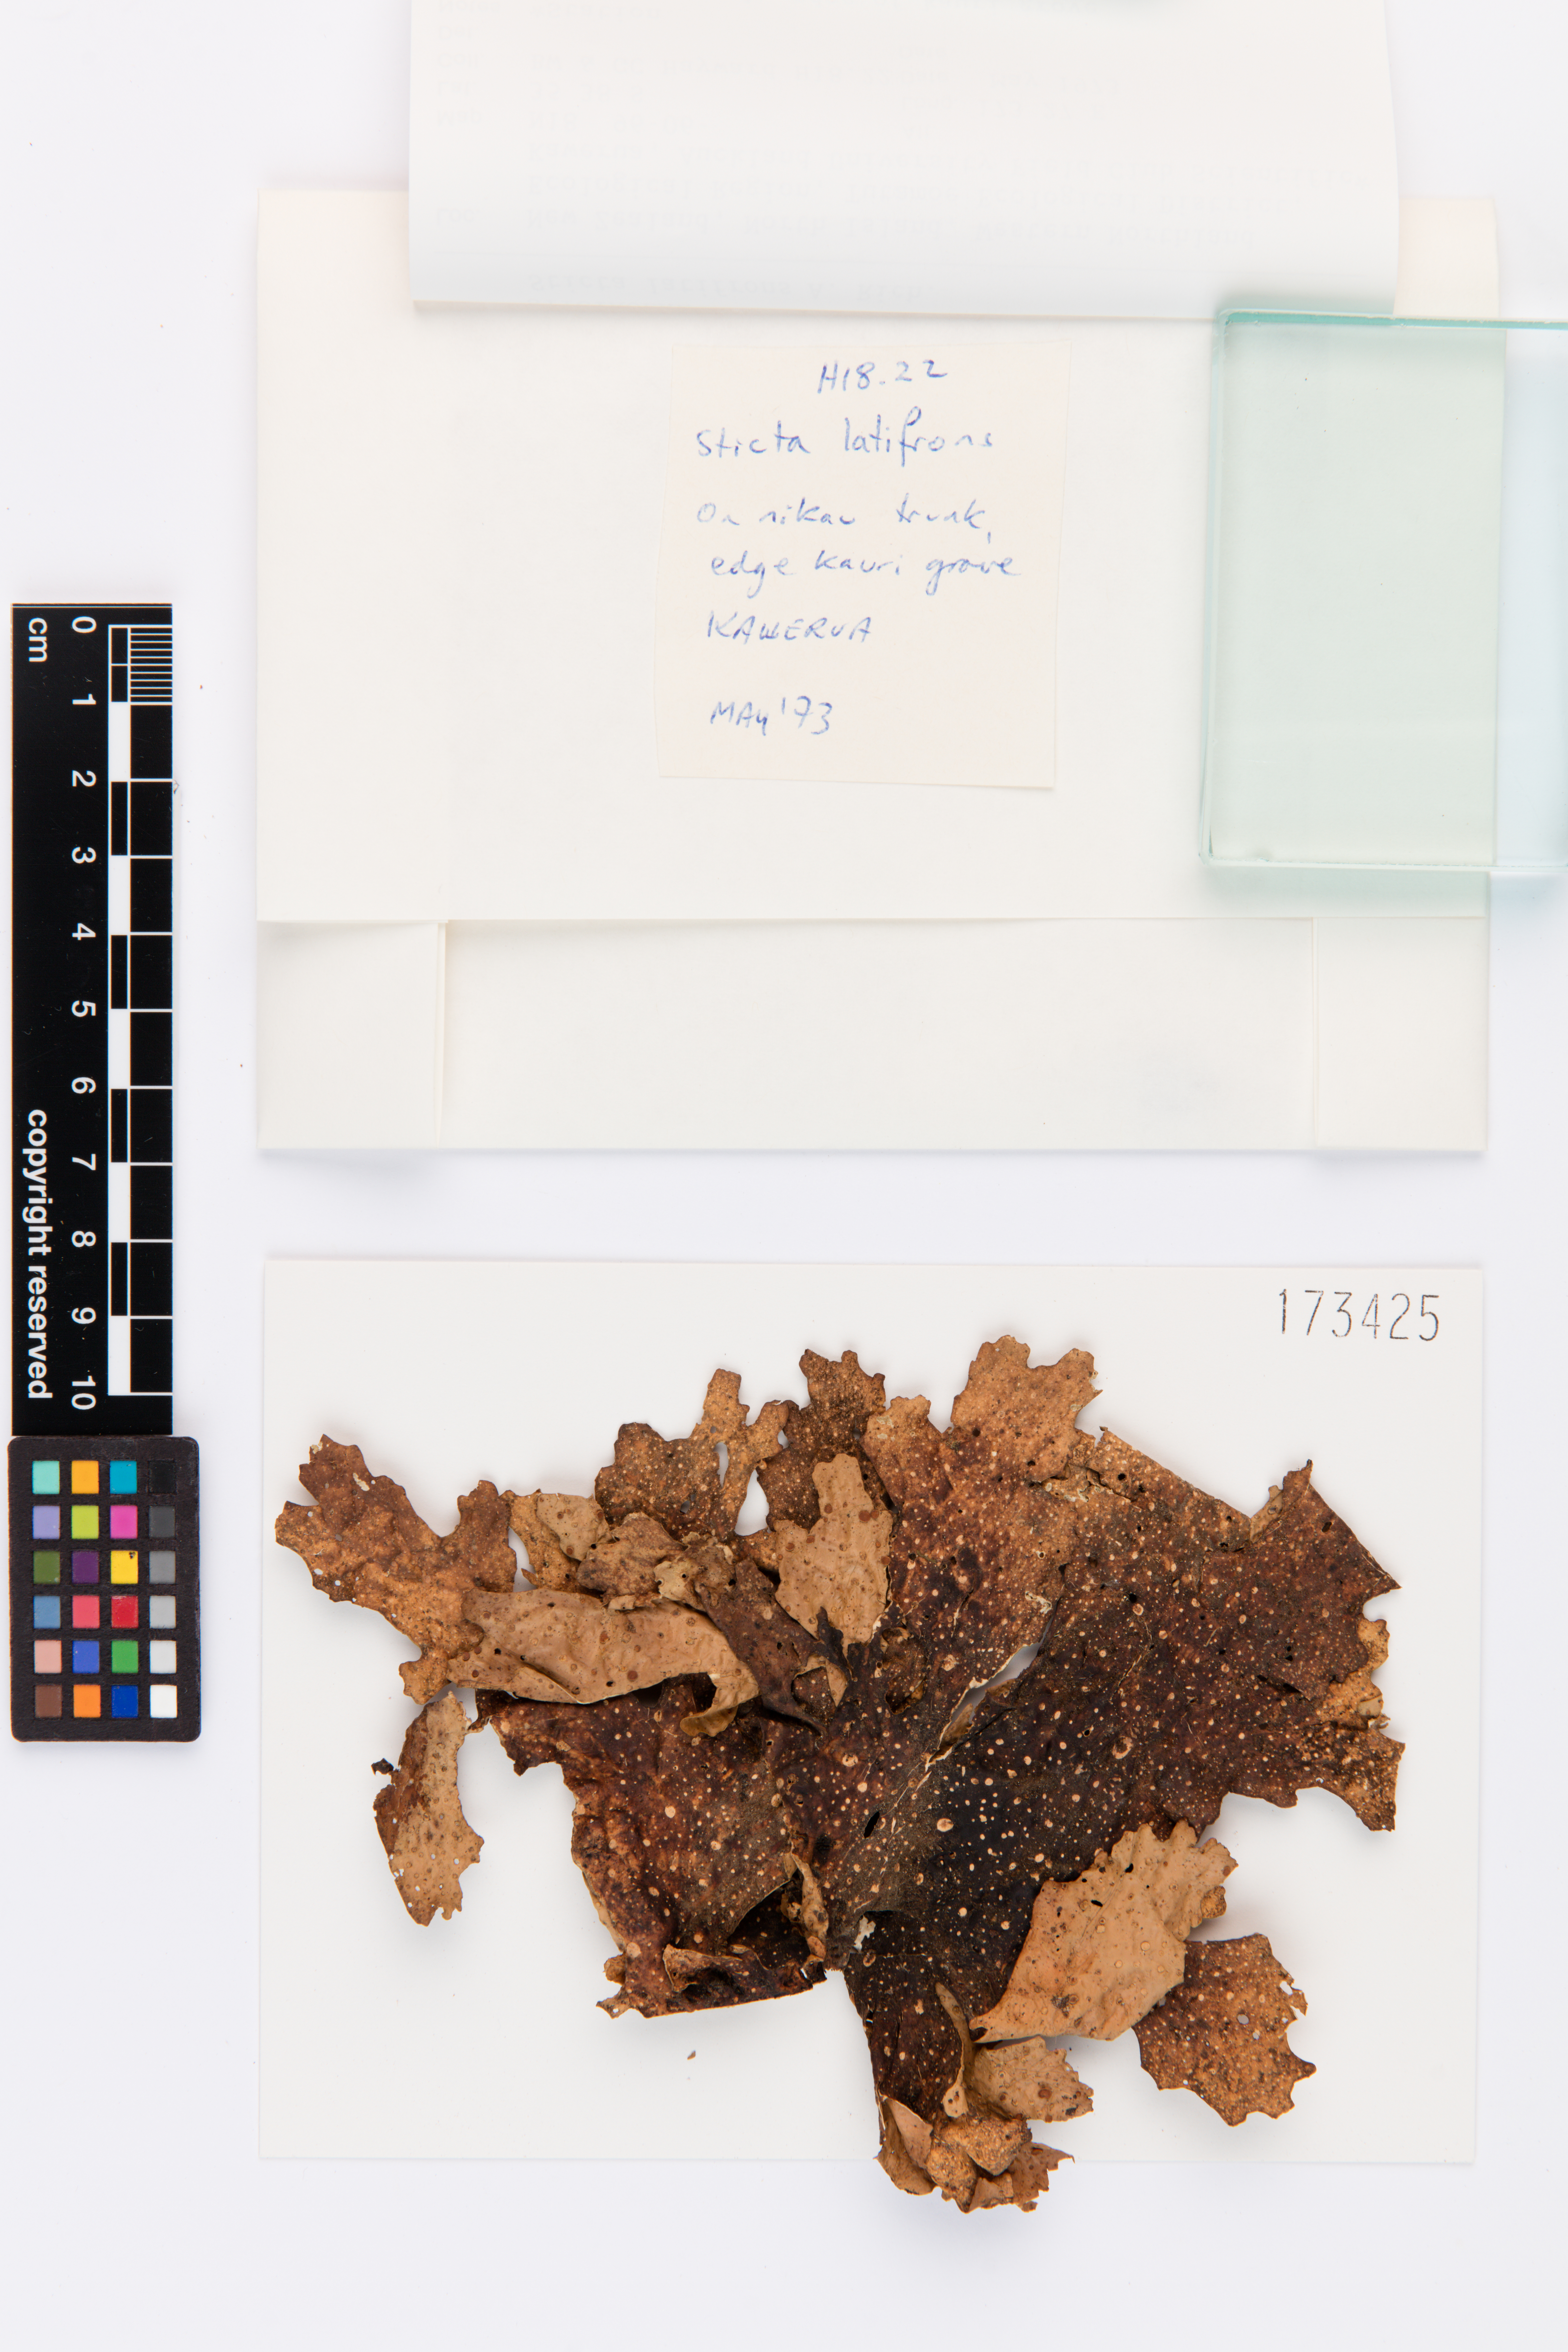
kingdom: Fungi
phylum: Ascomycota
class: Lecanoromycetes
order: Peltigerales
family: Lobariaceae
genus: Sticta
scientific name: Sticta latifrons
